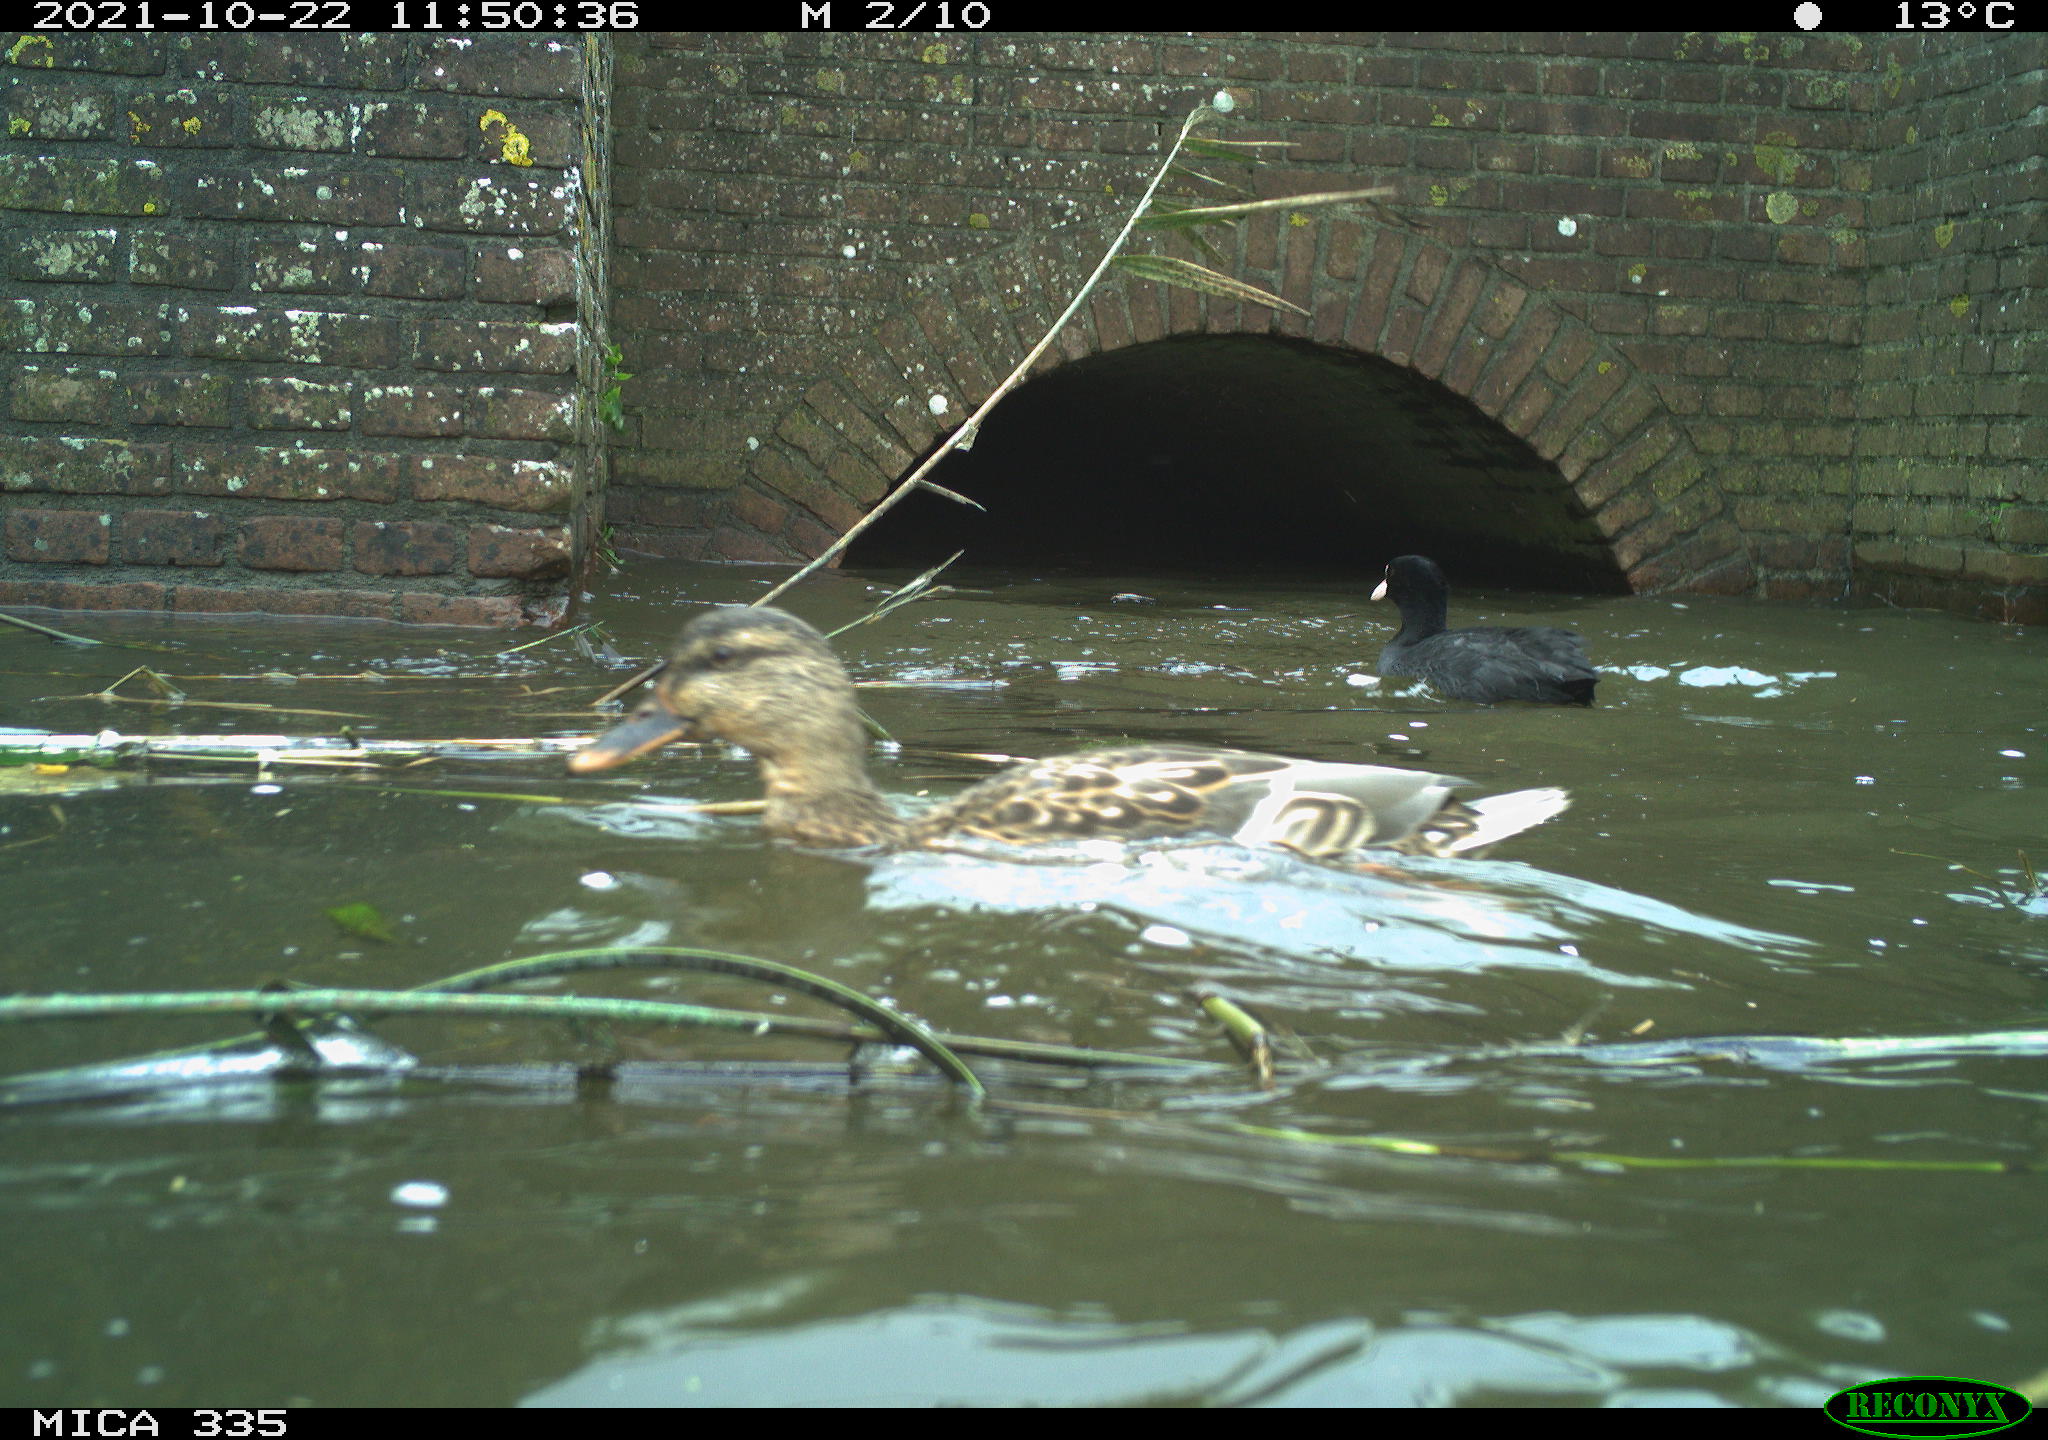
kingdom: Animalia
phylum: Chordata
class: Aves
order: Anseriformes
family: Anatidae
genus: Anas
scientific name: Anas platyrhynchos
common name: Mallard
